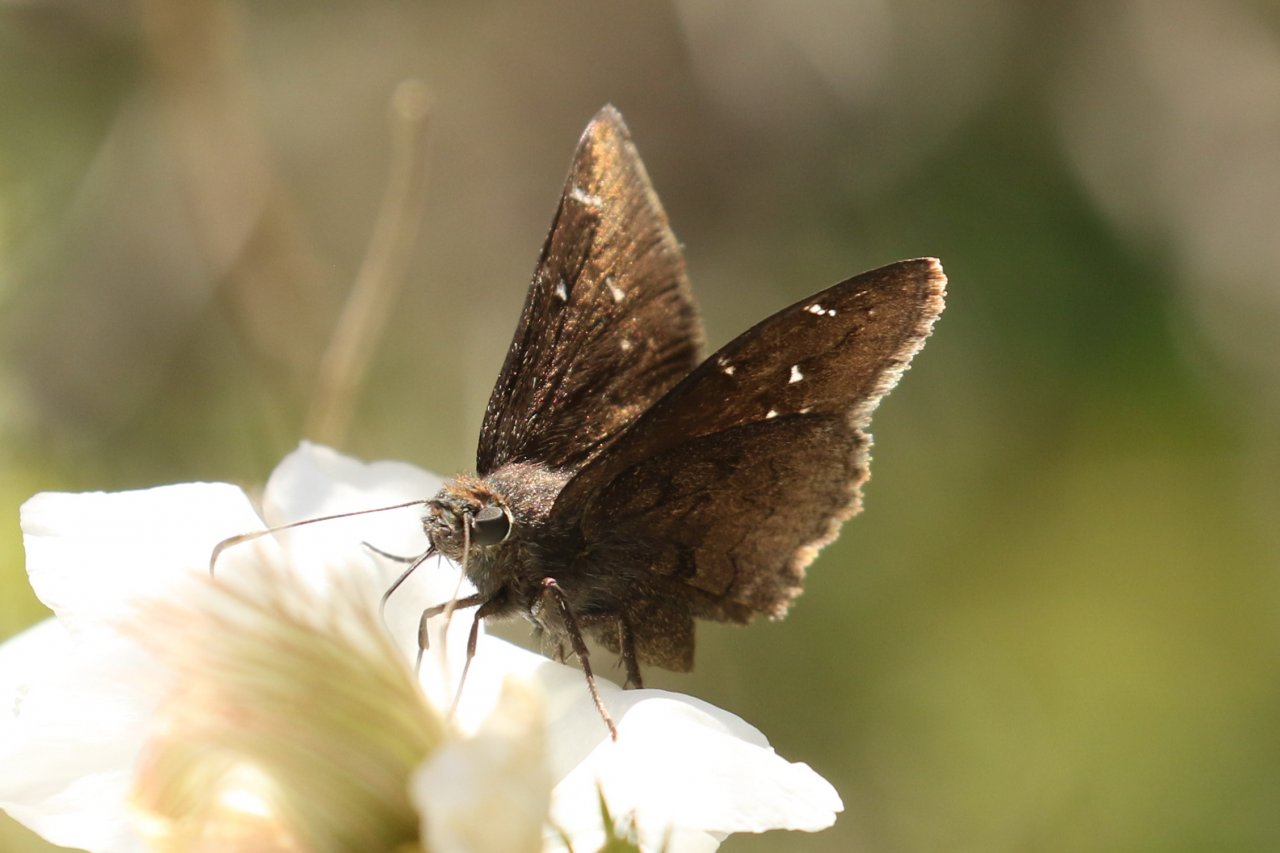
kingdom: Animalia
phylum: Arthropoda
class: Insecta
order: Lepidoptera
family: Hesperiidae
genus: Autochton
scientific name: Autochton
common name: Northern Cloudywing
